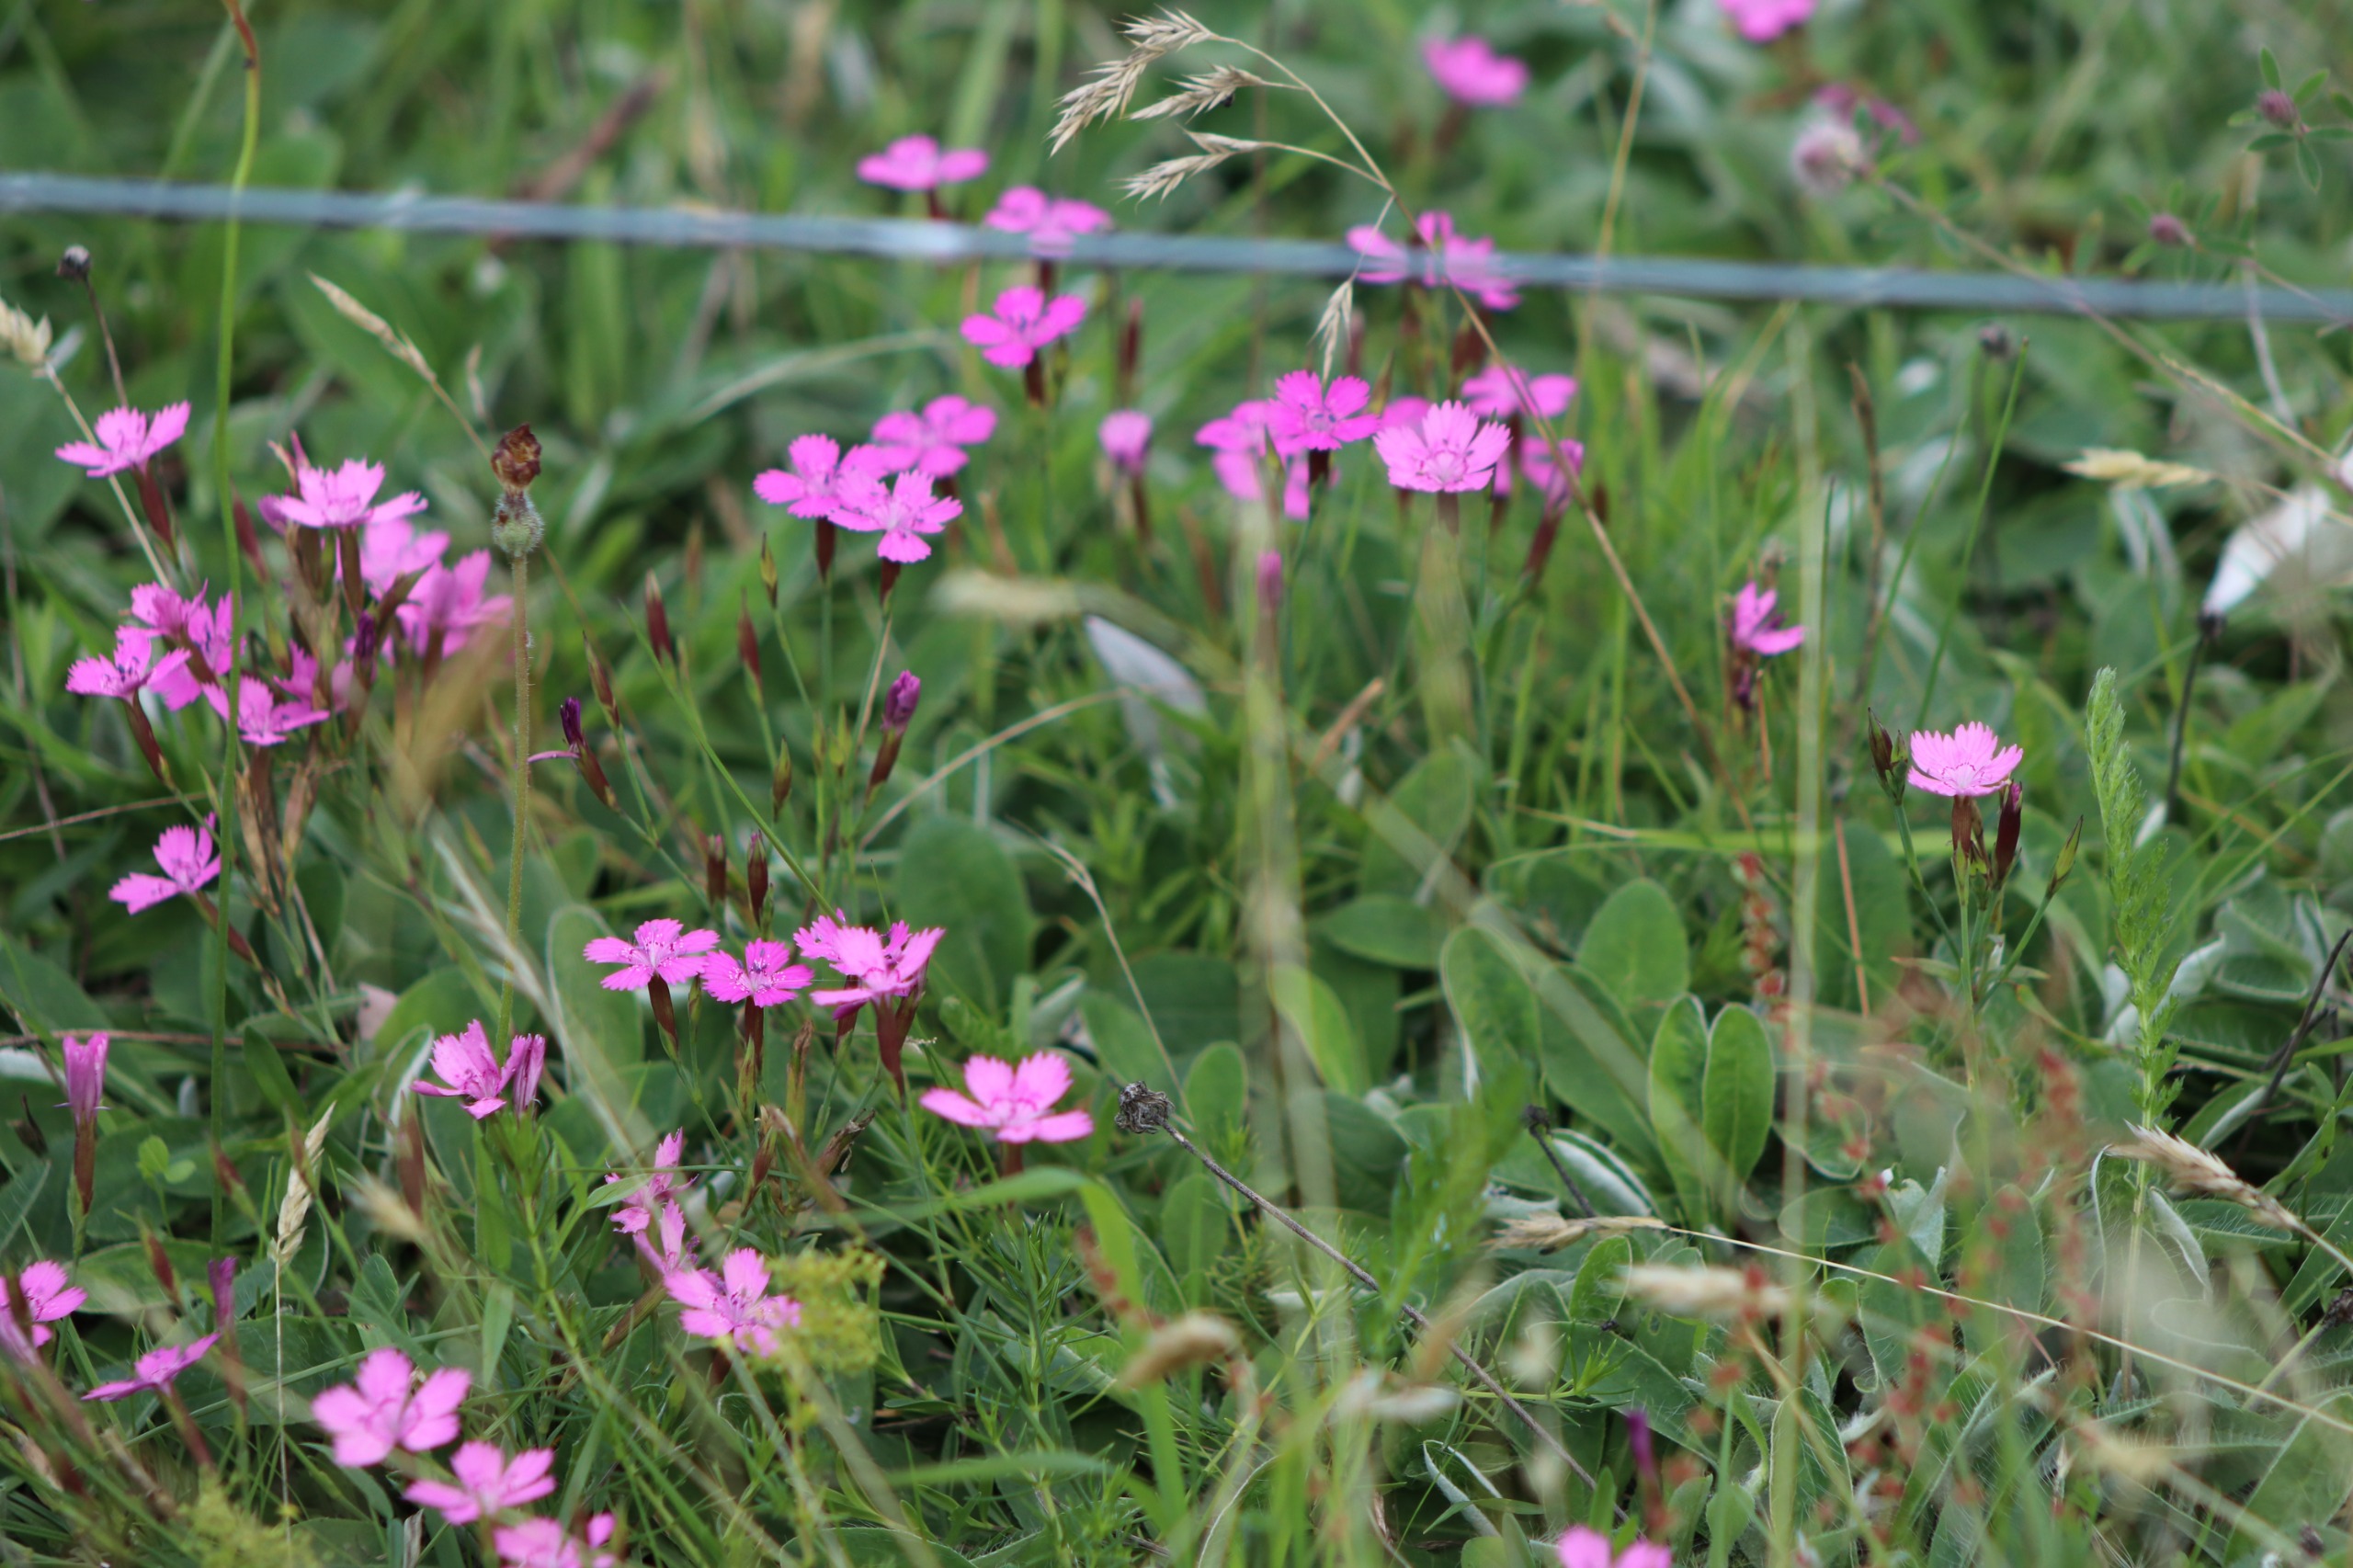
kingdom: Plantae
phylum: Tracheophyta
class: Magnoliopsida
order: Caryophyllales
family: Caryophyllaceae
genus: Dianthus
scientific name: Dianthus deltoides
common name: Bakke-nellike
